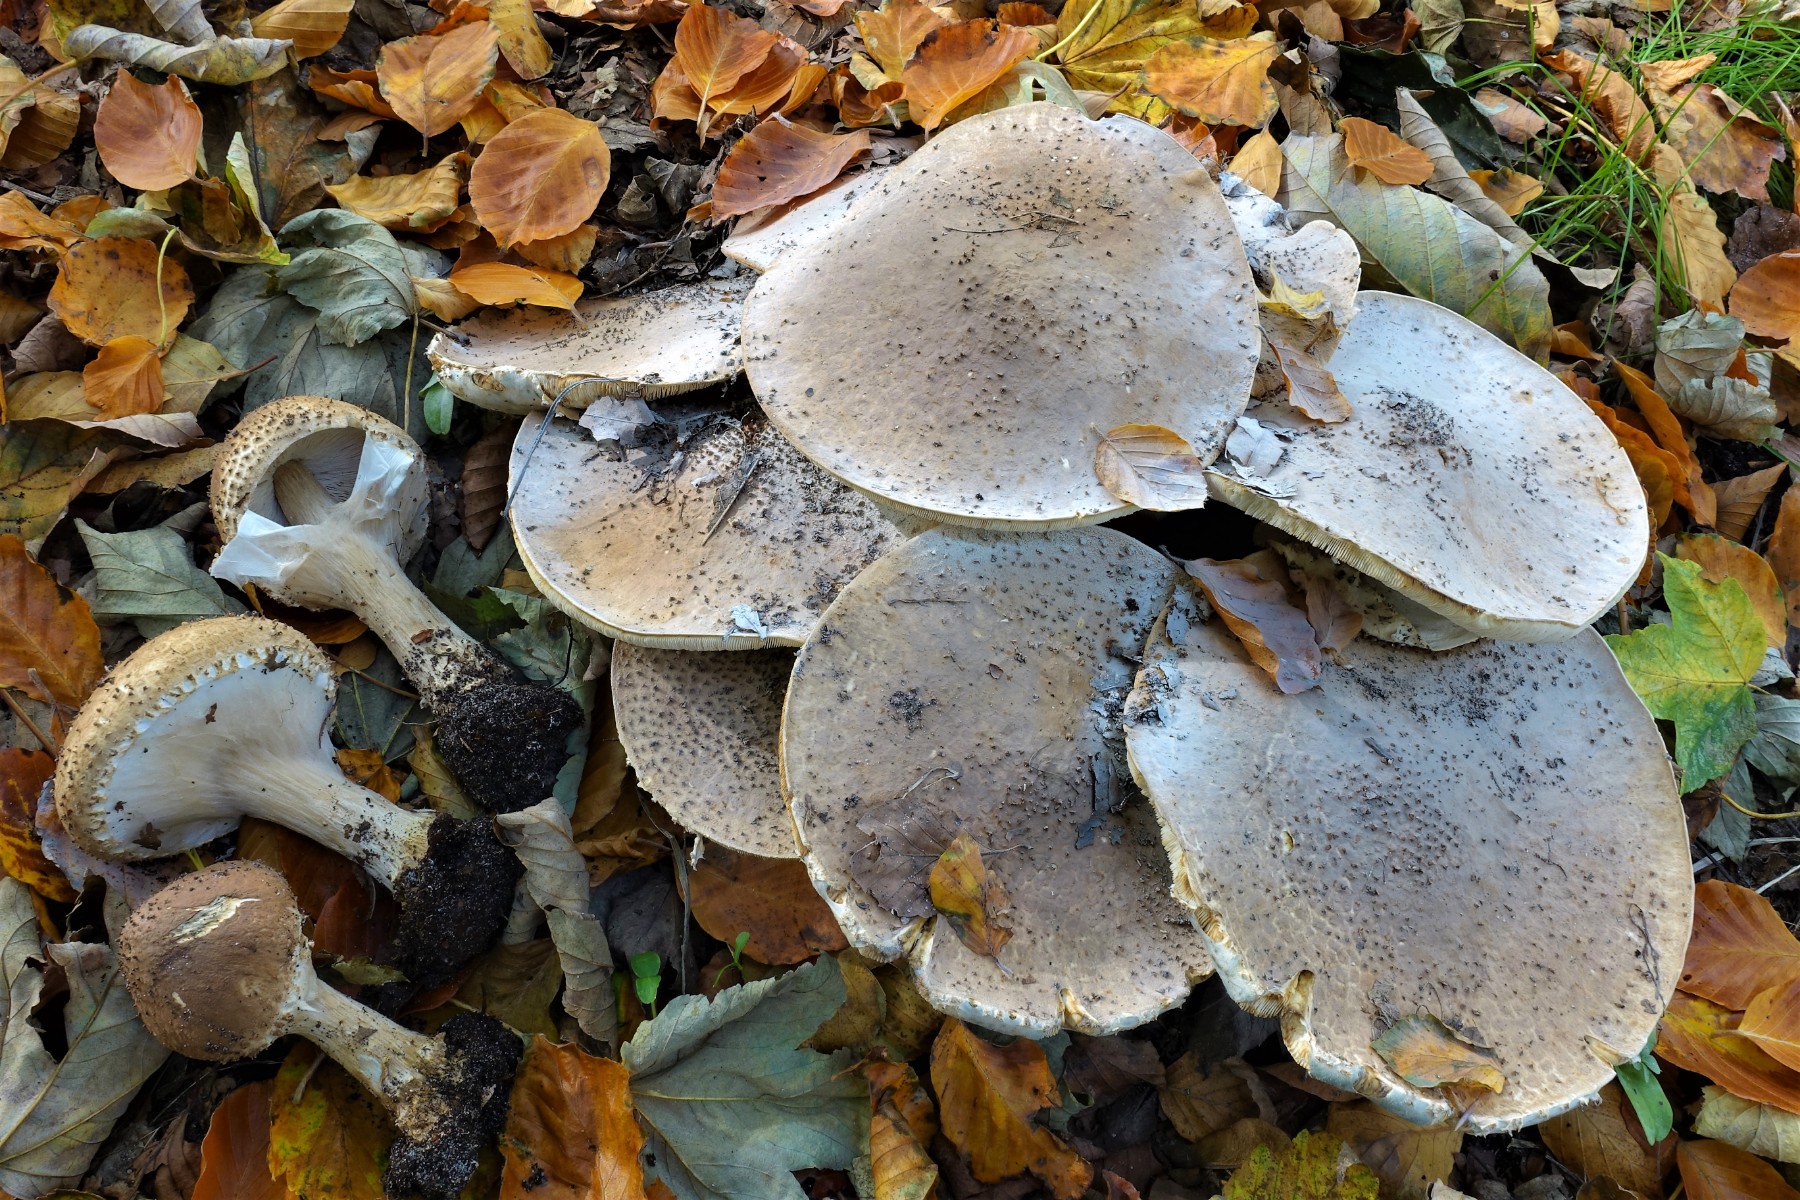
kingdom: Fungi
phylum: Basidiomycota
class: Agaricomycetes
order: Agaricales
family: Agaricaceae
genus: Echinoderma
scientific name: Echinoderma asperum
